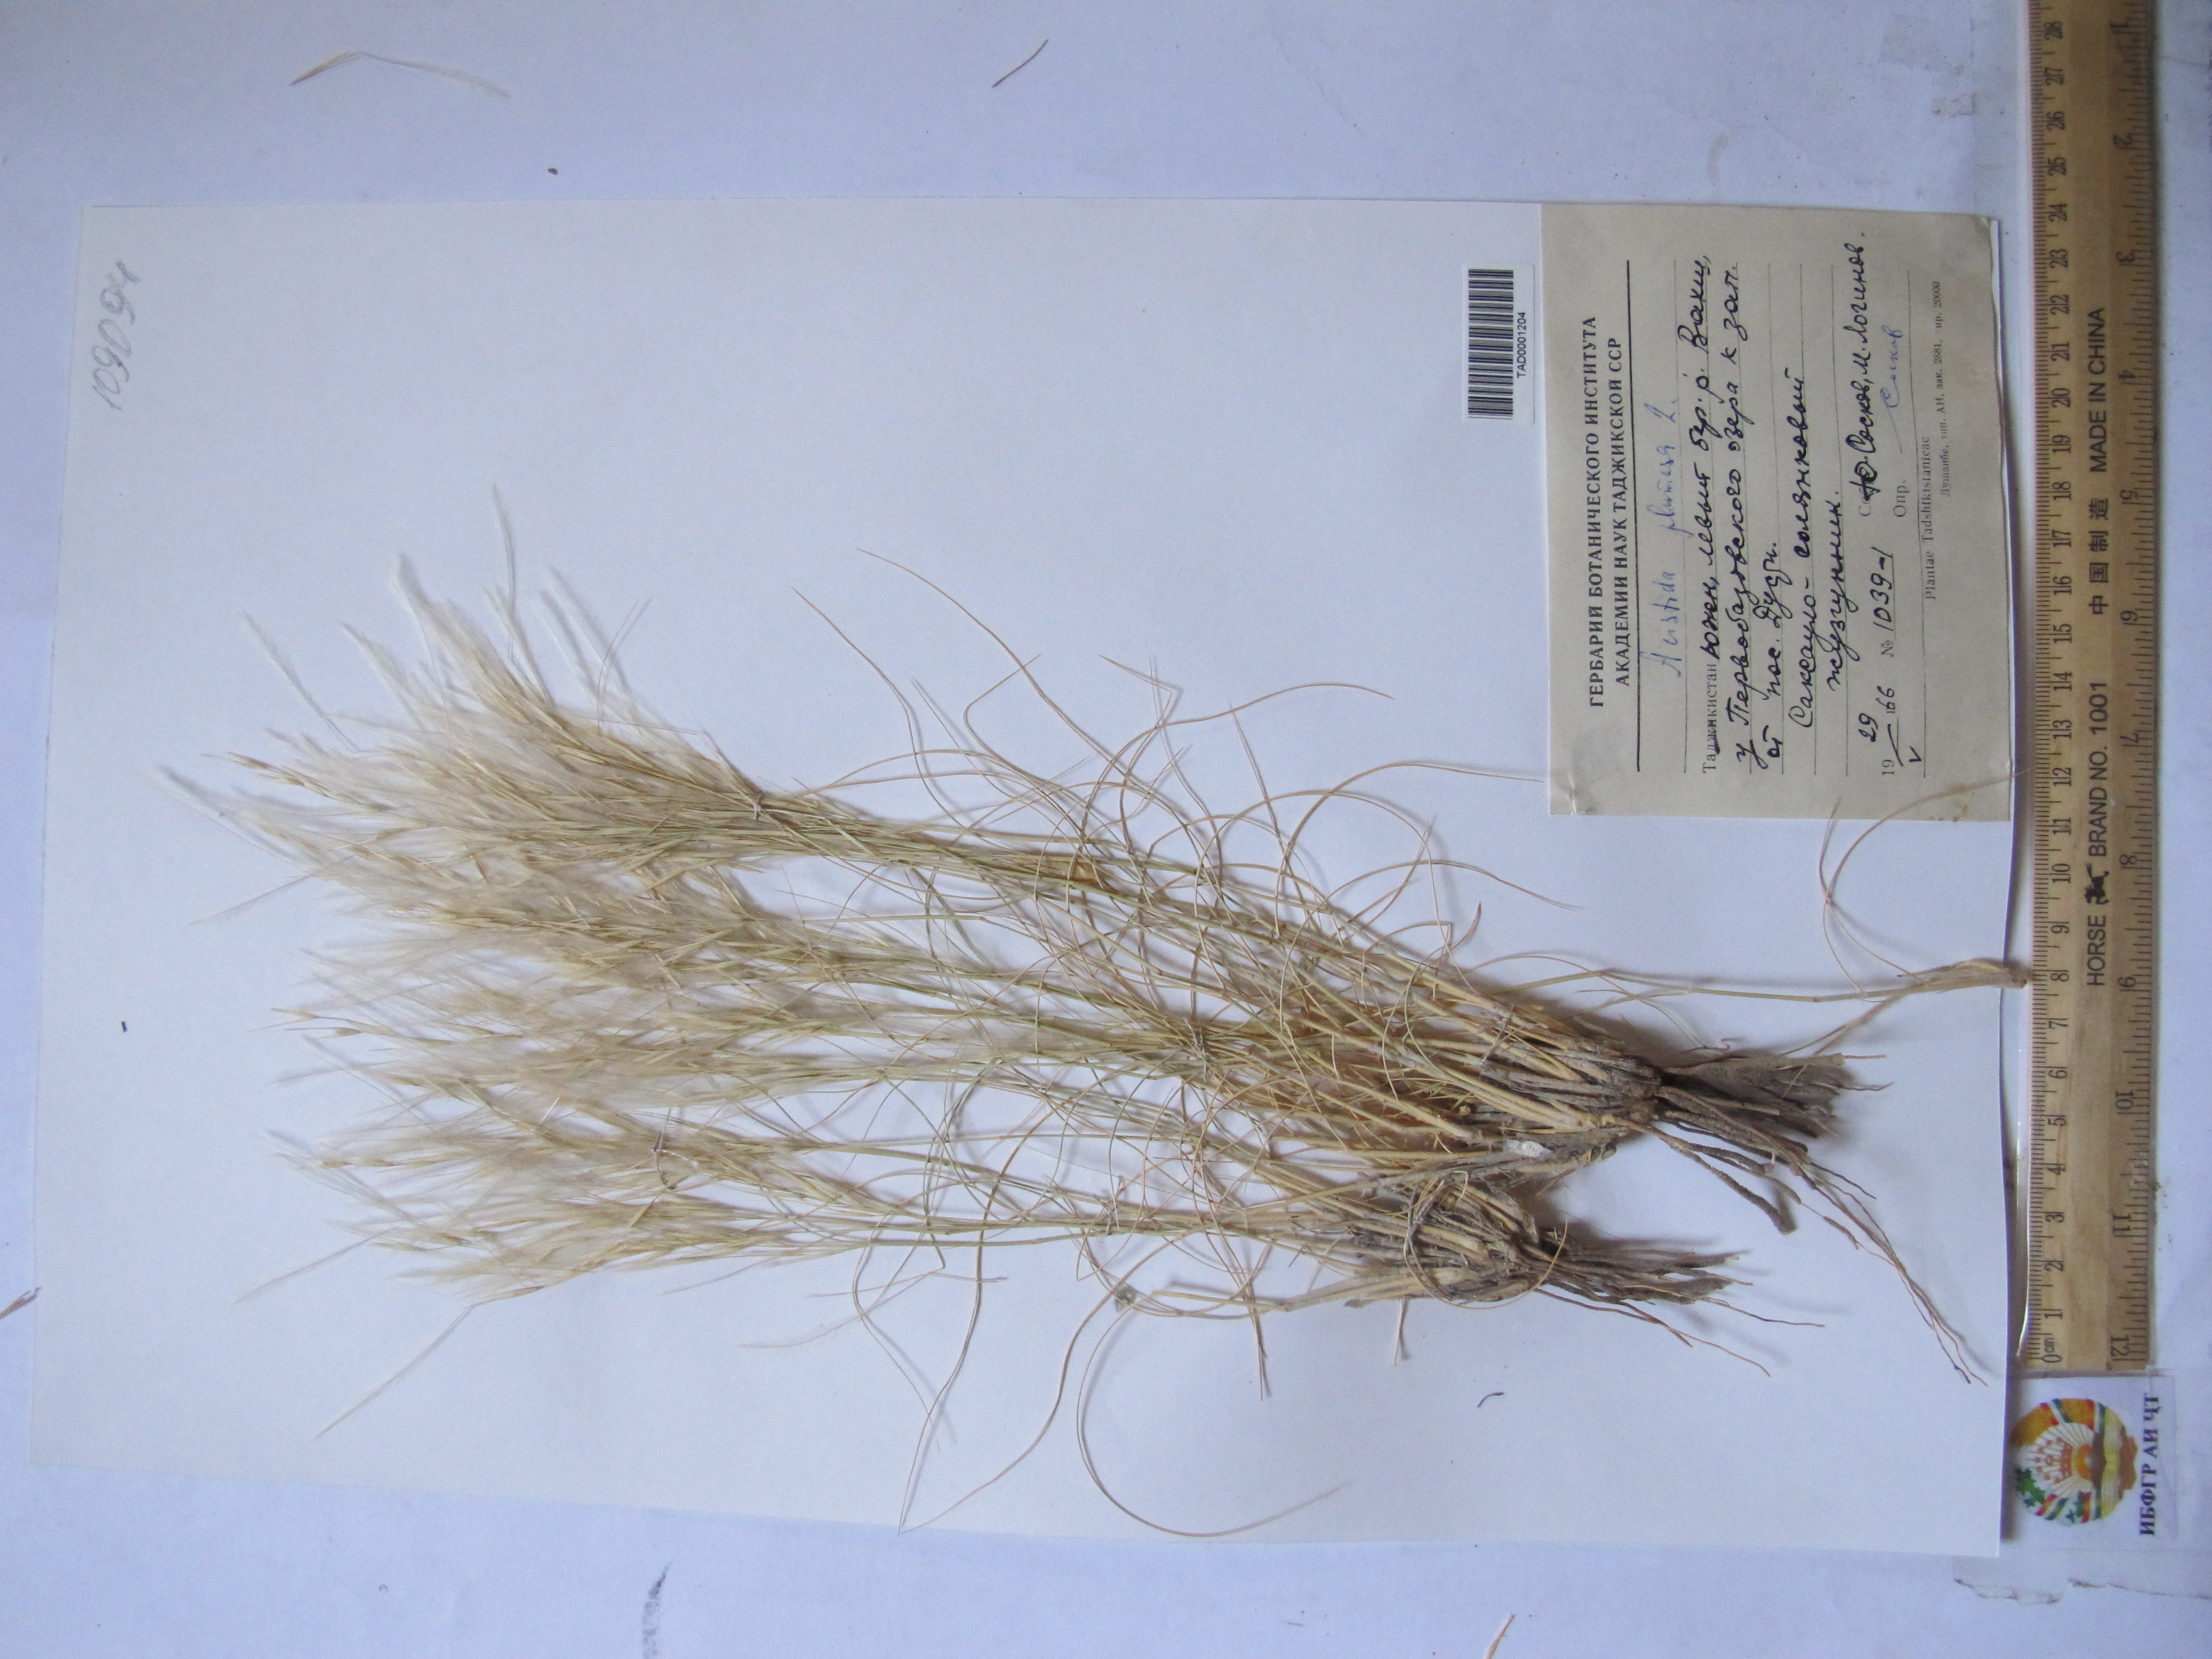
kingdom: Plantae
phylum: Tracheophyta
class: Liliopsida
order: Poales
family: Poaceae
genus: Stipagrostis
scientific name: Stipagrostis plumosa
